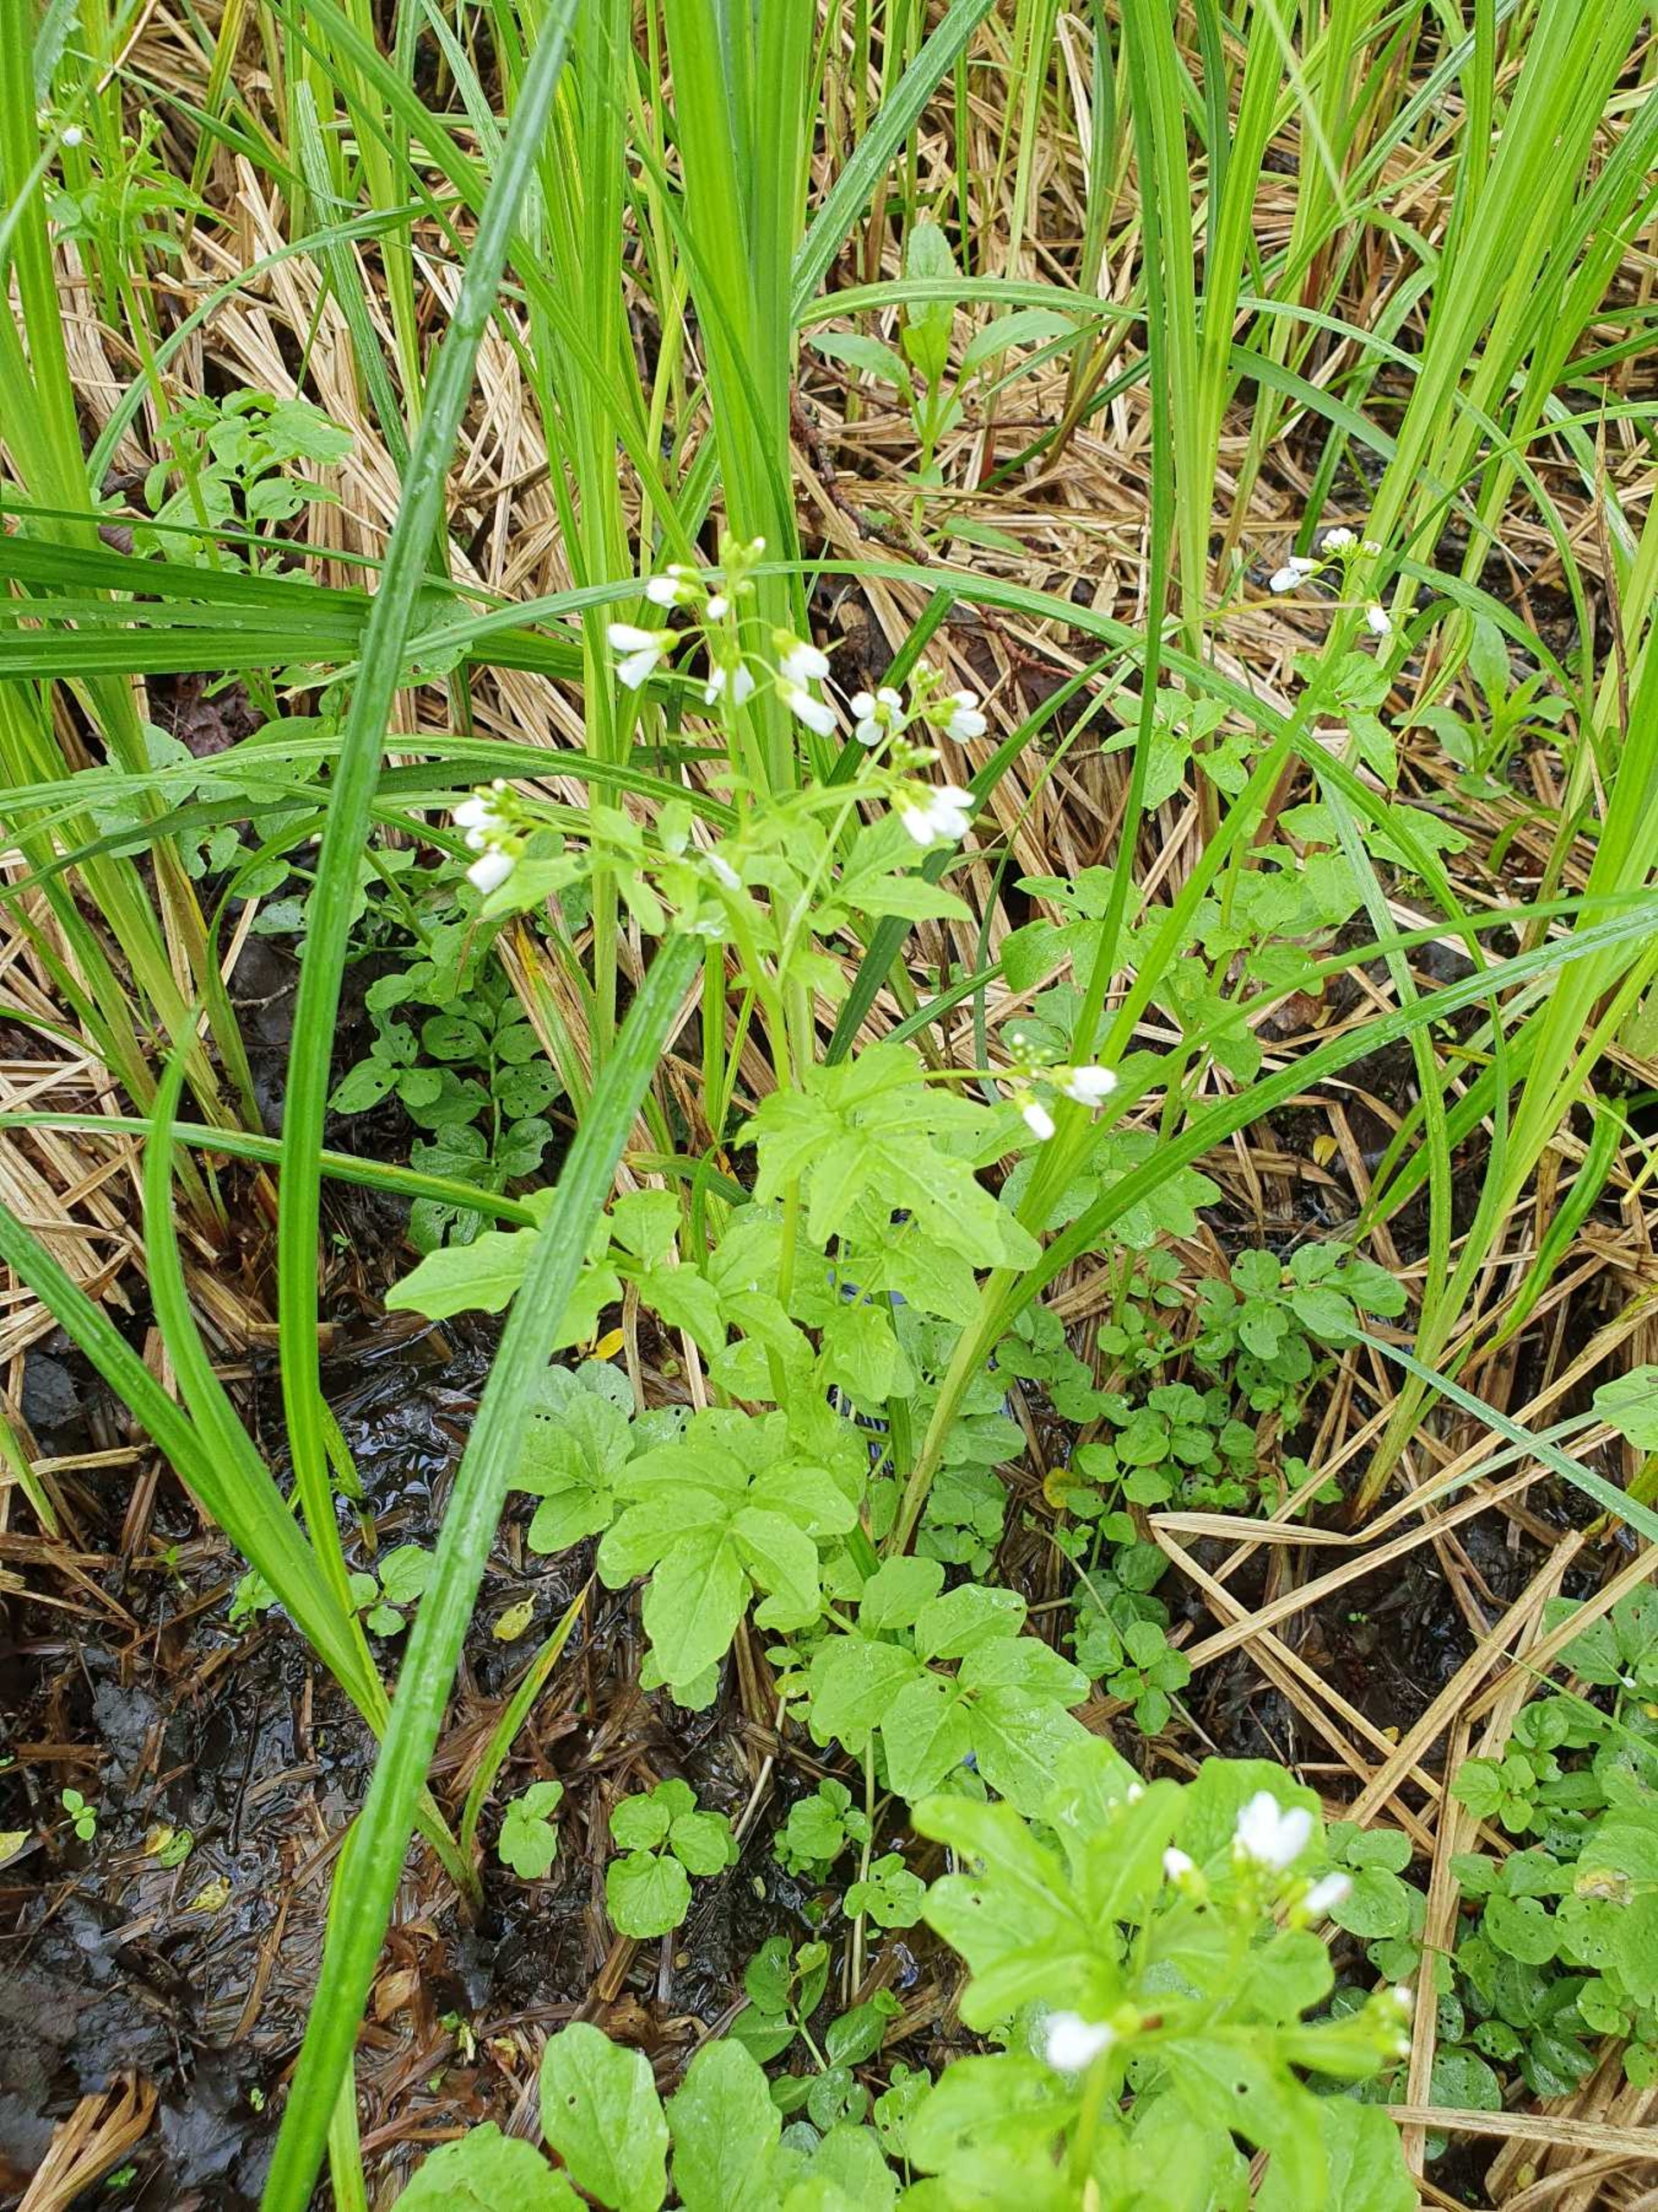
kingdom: Plantae
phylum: Tracheophyta
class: Magnoliopsida
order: Brassicales
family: Brassicaceae
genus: Cardamine
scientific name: Cardamine amara
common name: Vandkarse
